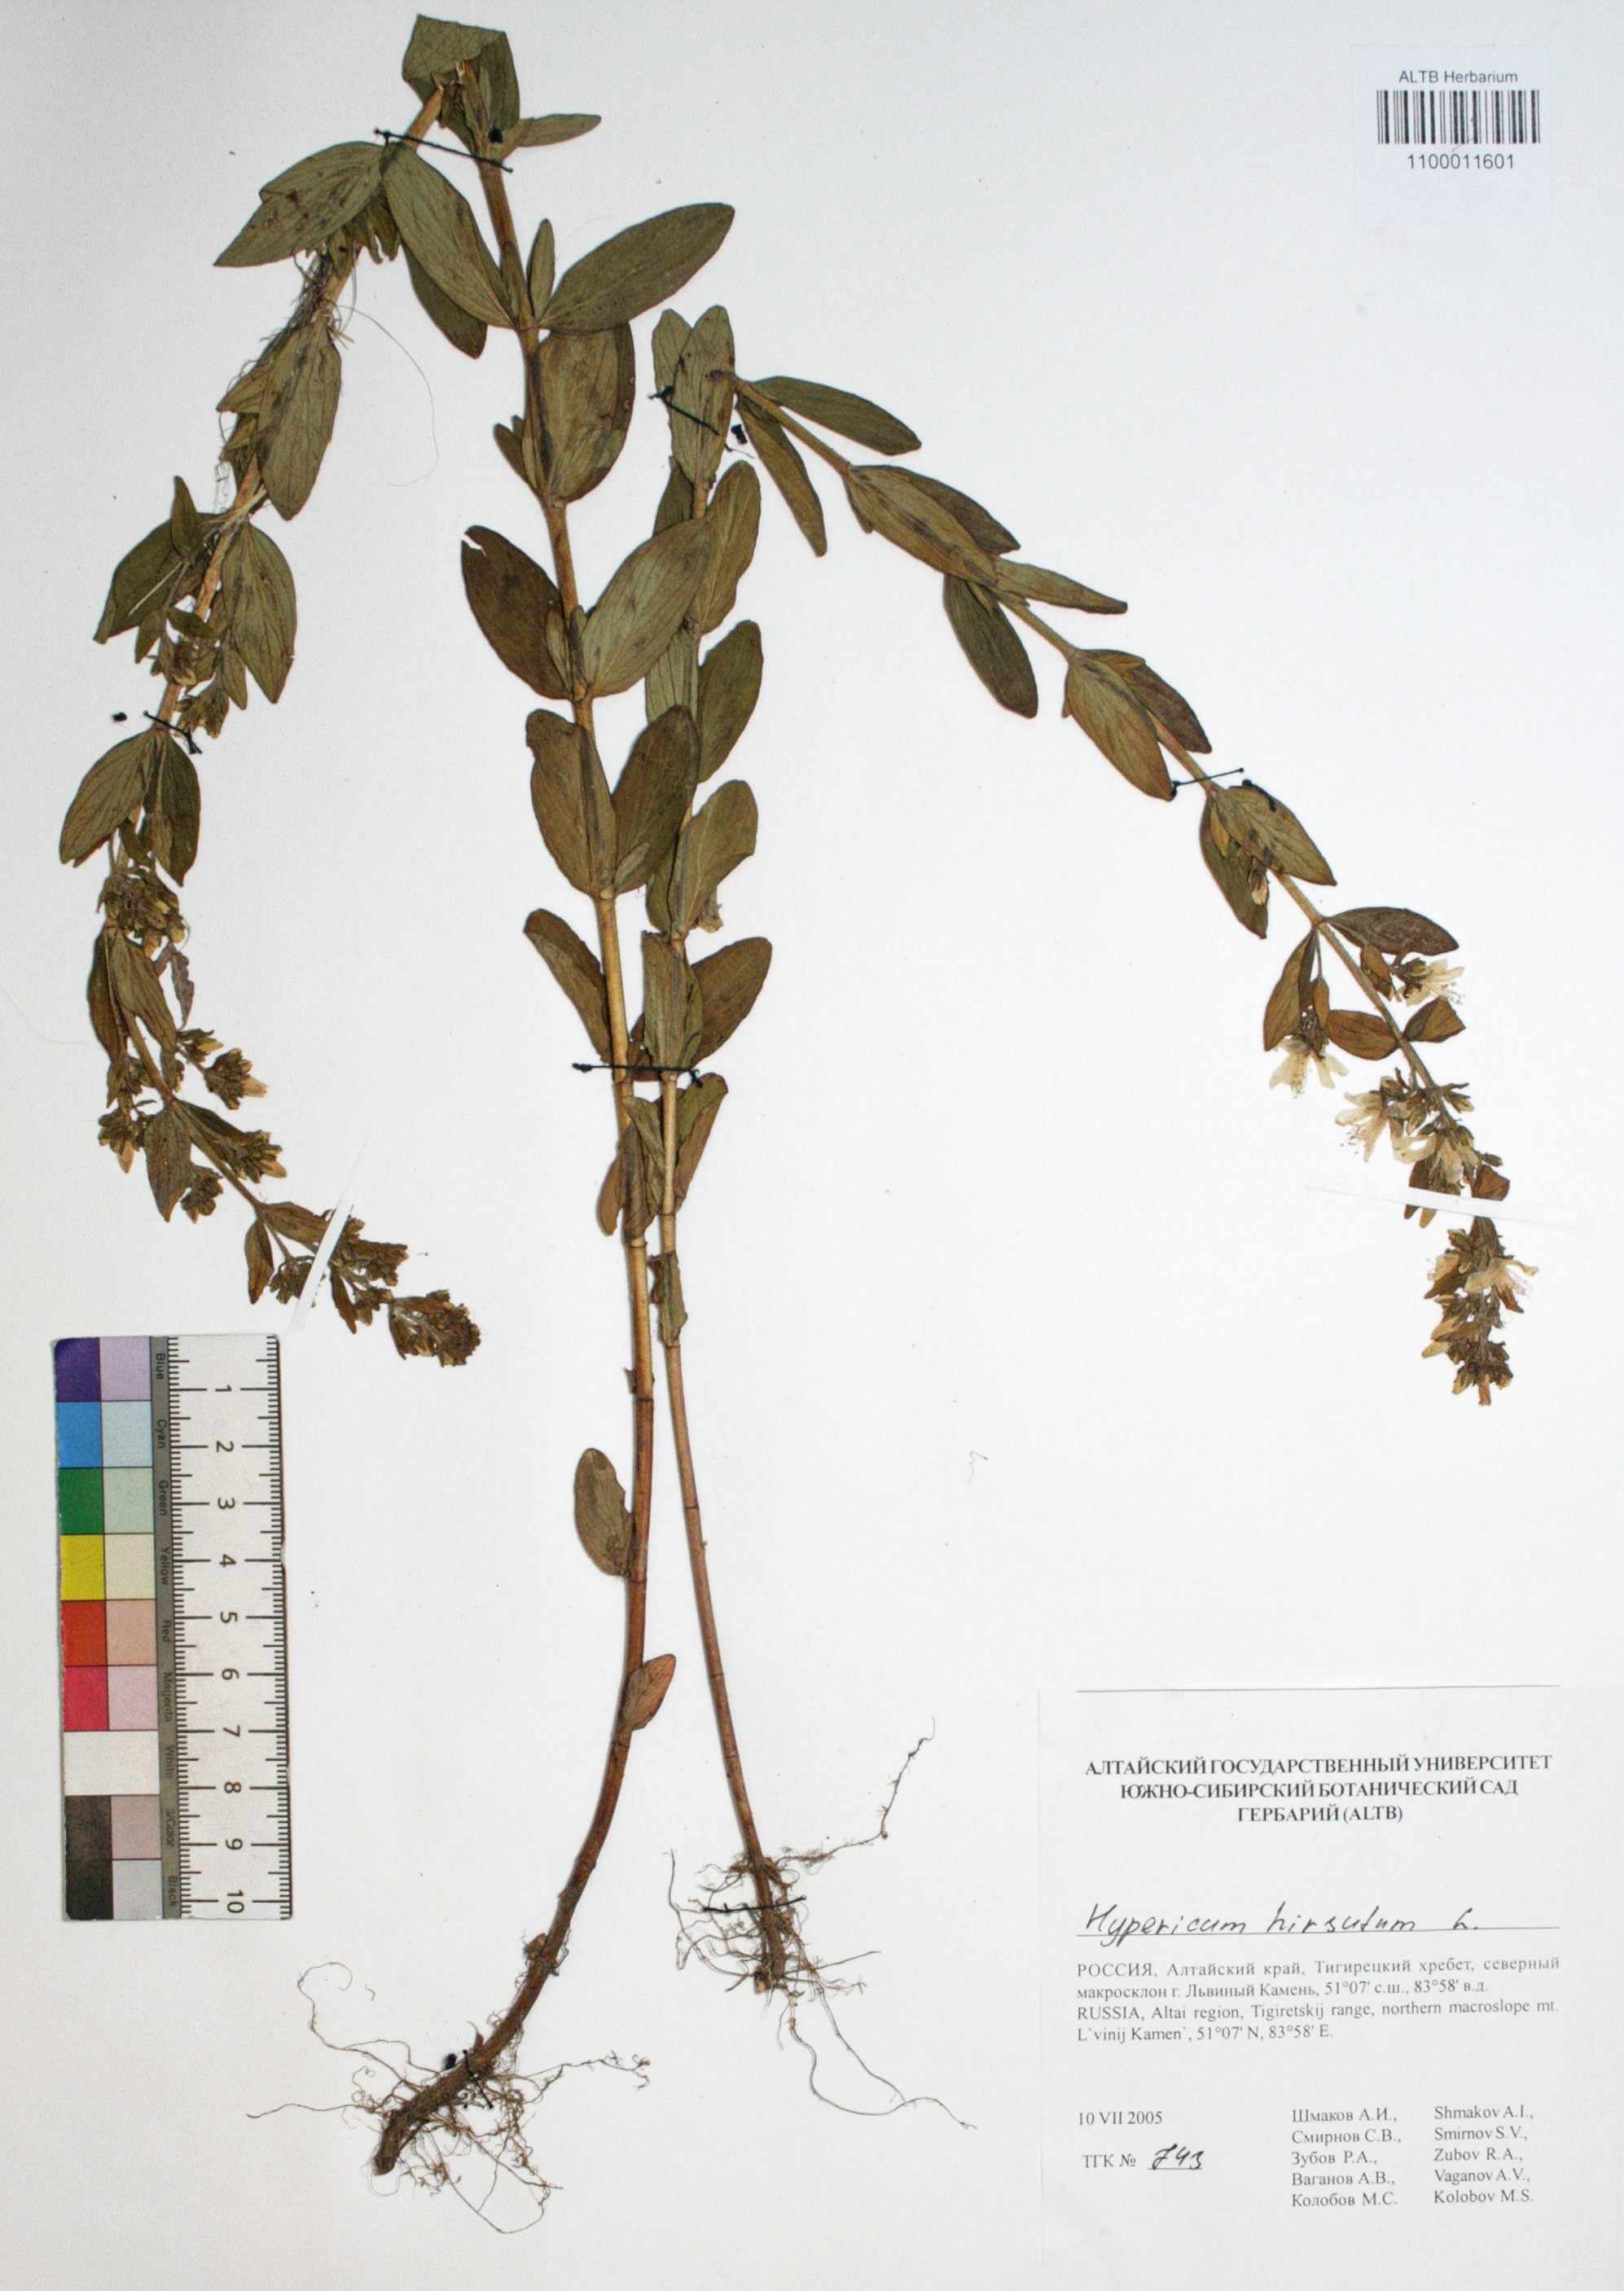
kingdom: Plantae
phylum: Tracheophyta
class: Magnoliopsida
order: Malpighiales
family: Hypericaceae
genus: Hypericum
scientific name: Hypericum hirsutum
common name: Hairy st. john's-wort
